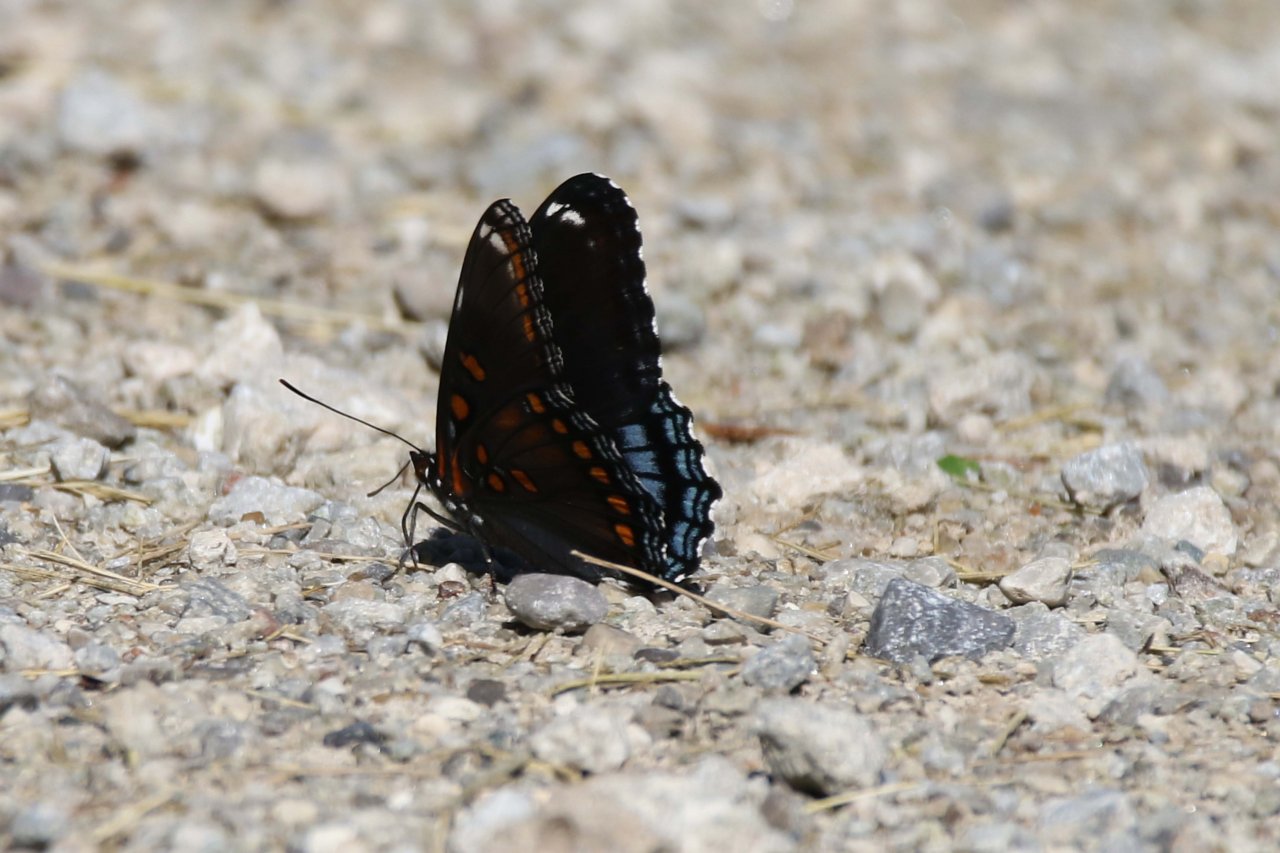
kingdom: Animalia
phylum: Arthropoda
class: Insecta
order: Lepidoptera
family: Nymphalidae
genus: Limenitis
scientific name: Limenitis astyanax
